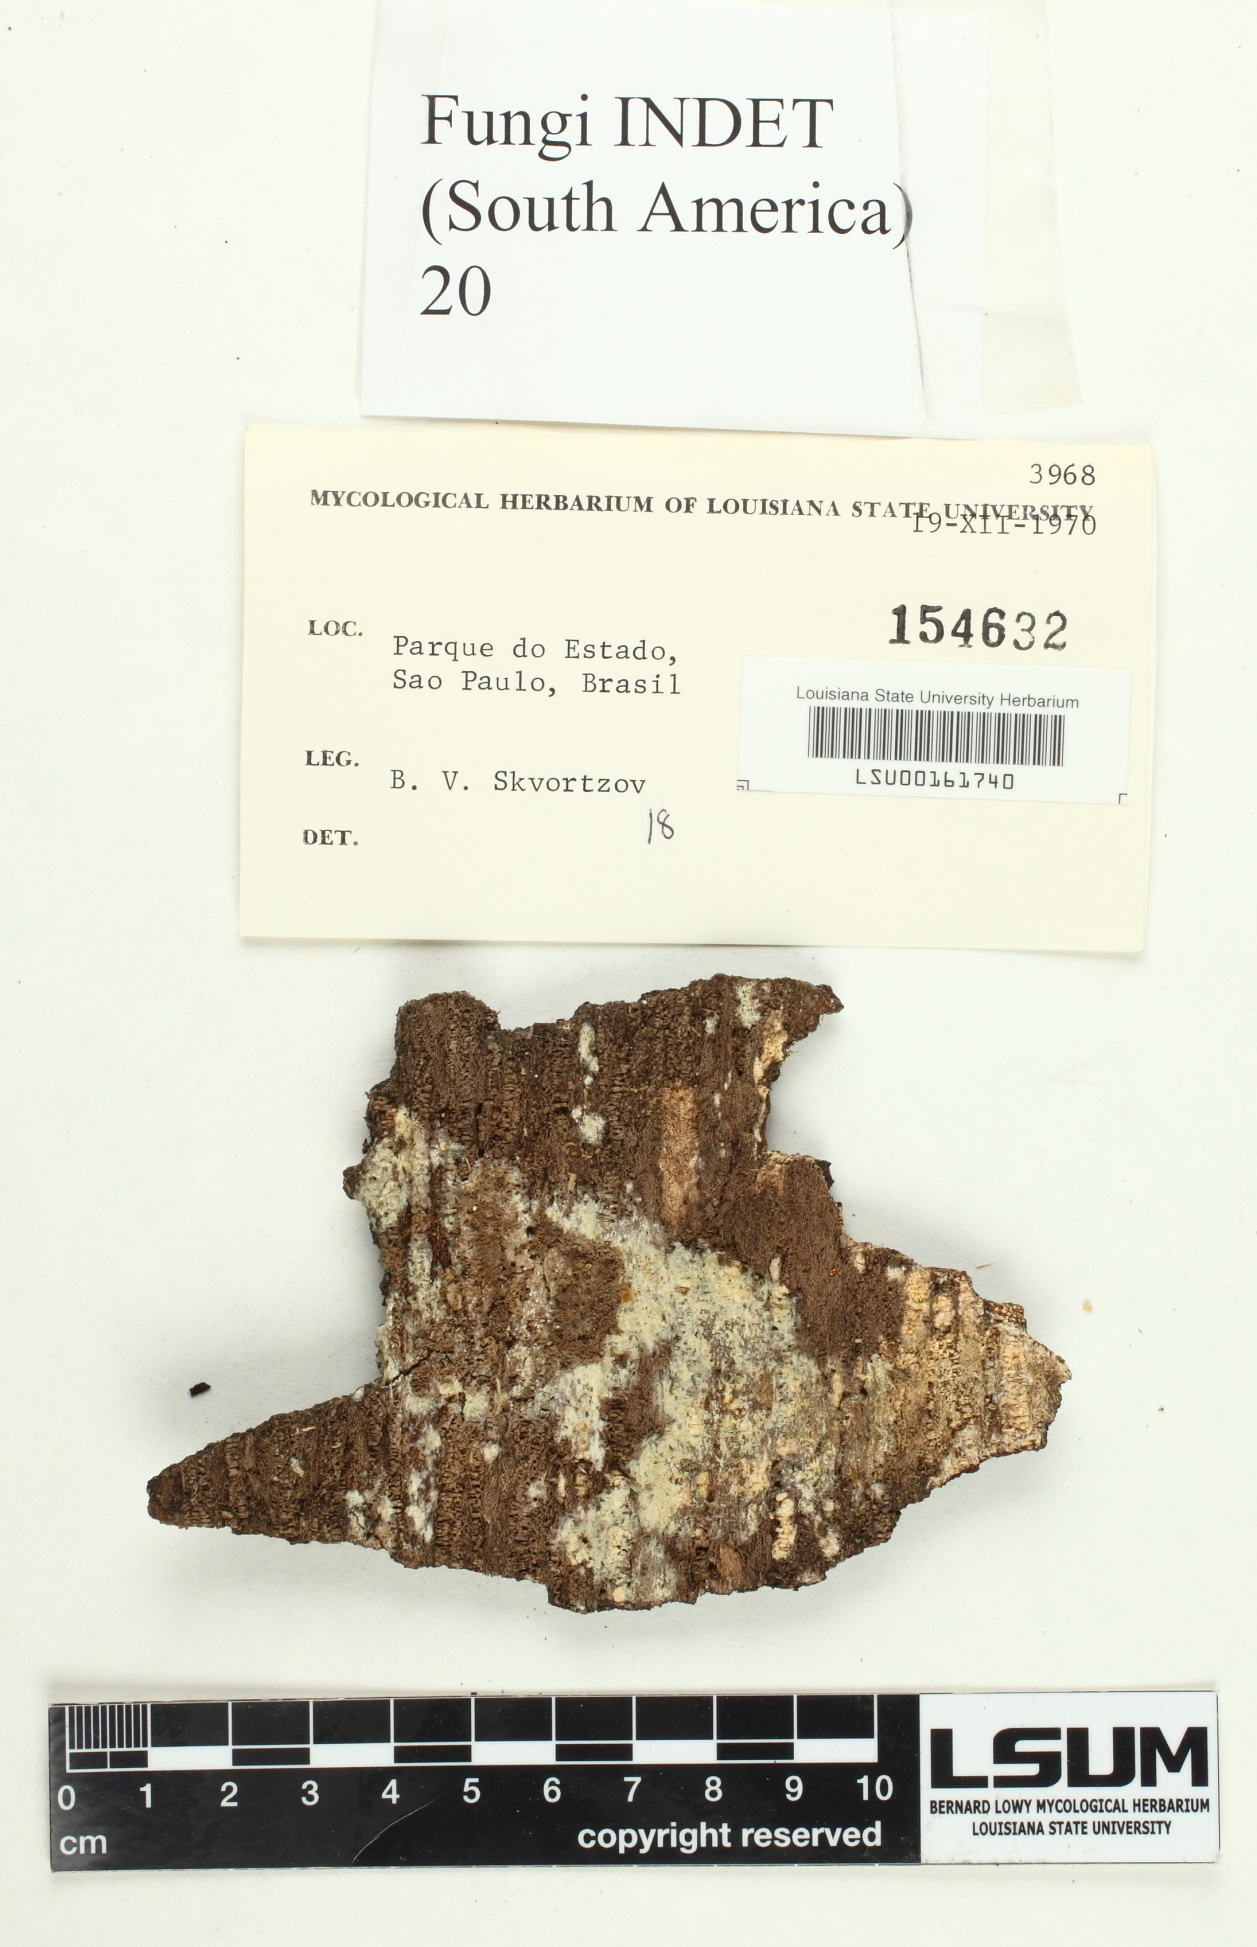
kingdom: Fungi
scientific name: Fungi
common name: Fungi
